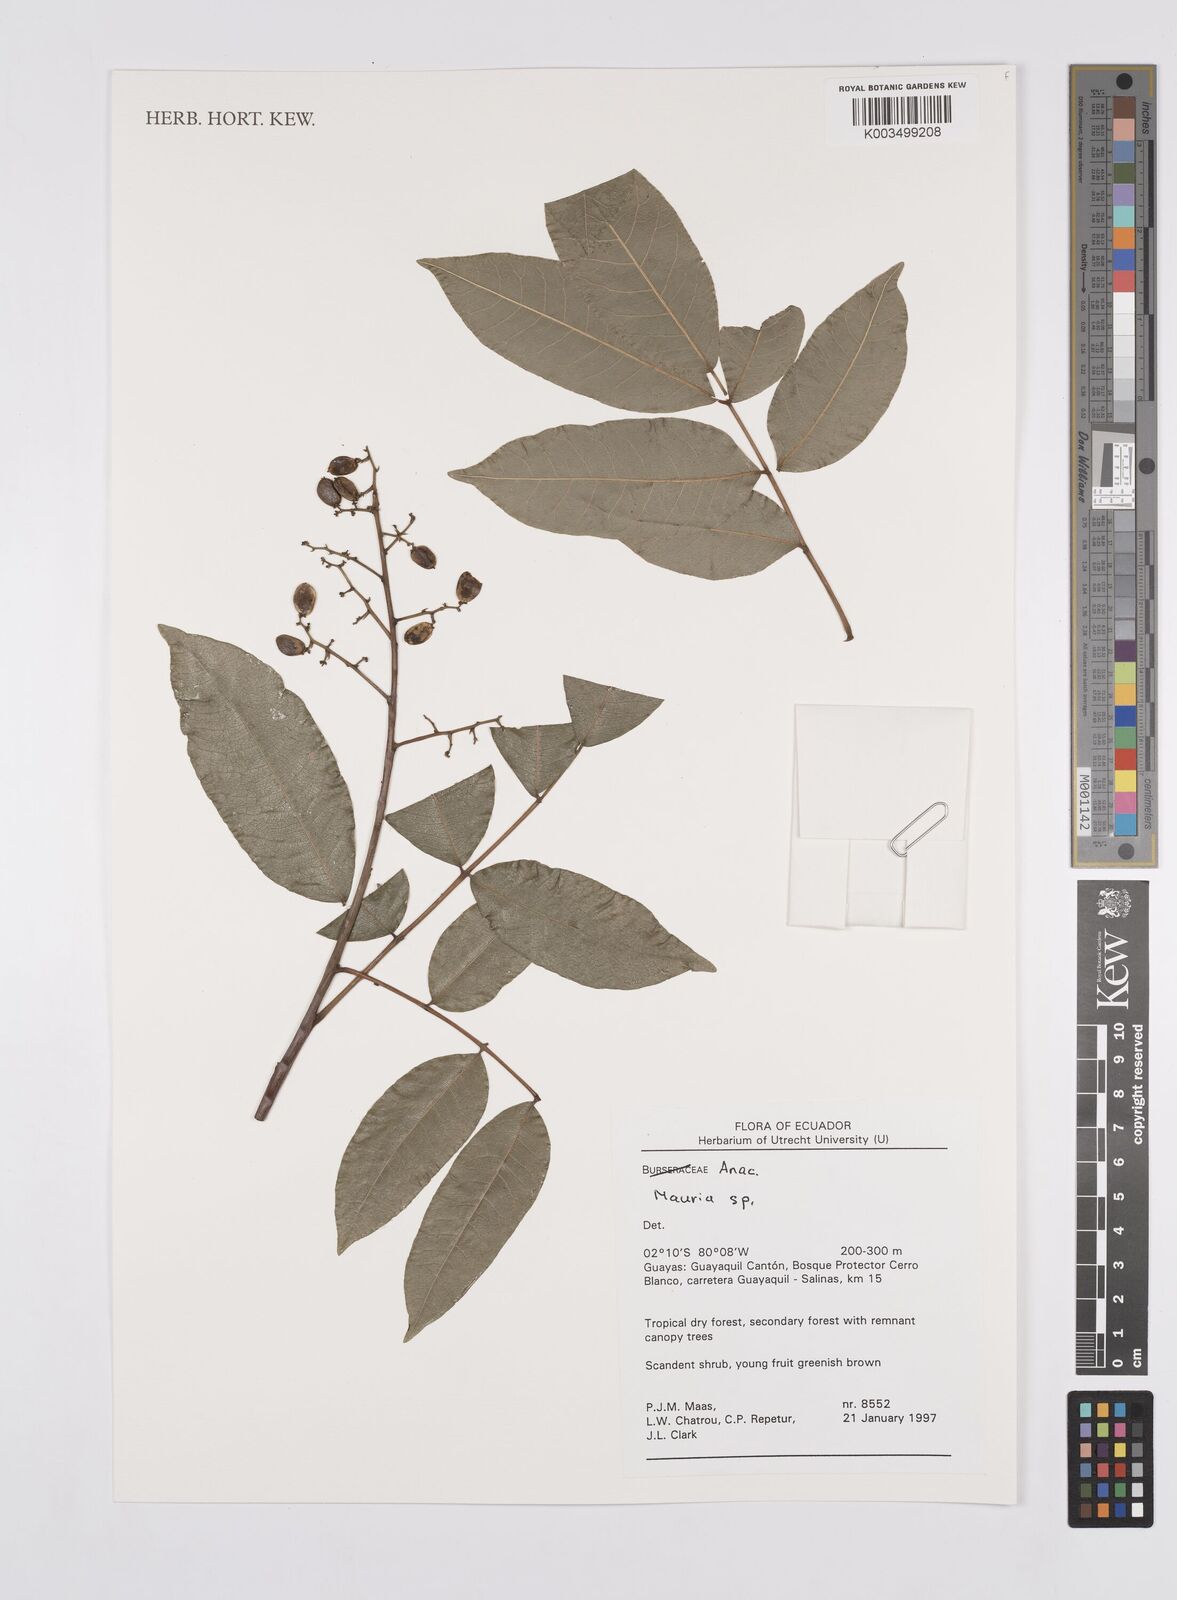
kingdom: Plantae
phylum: Tracheophyta
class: Magnoliopsida
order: Sapindales
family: Anacardiaceae
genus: Mauria
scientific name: Mauria
